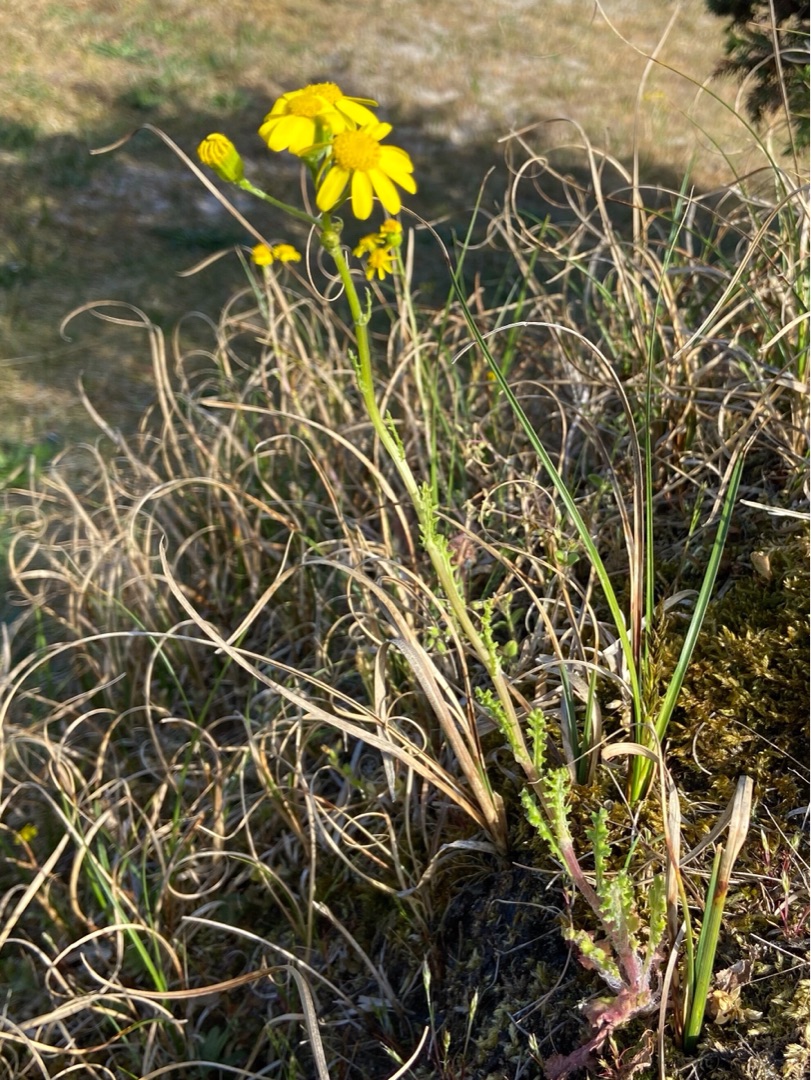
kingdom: Plantae
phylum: Tracheophyta
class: Magnoliopsida
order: Asterales
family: Asteraceae
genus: Senecio
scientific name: Senecio leucanthemifolius
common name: Vår-brandbæger
